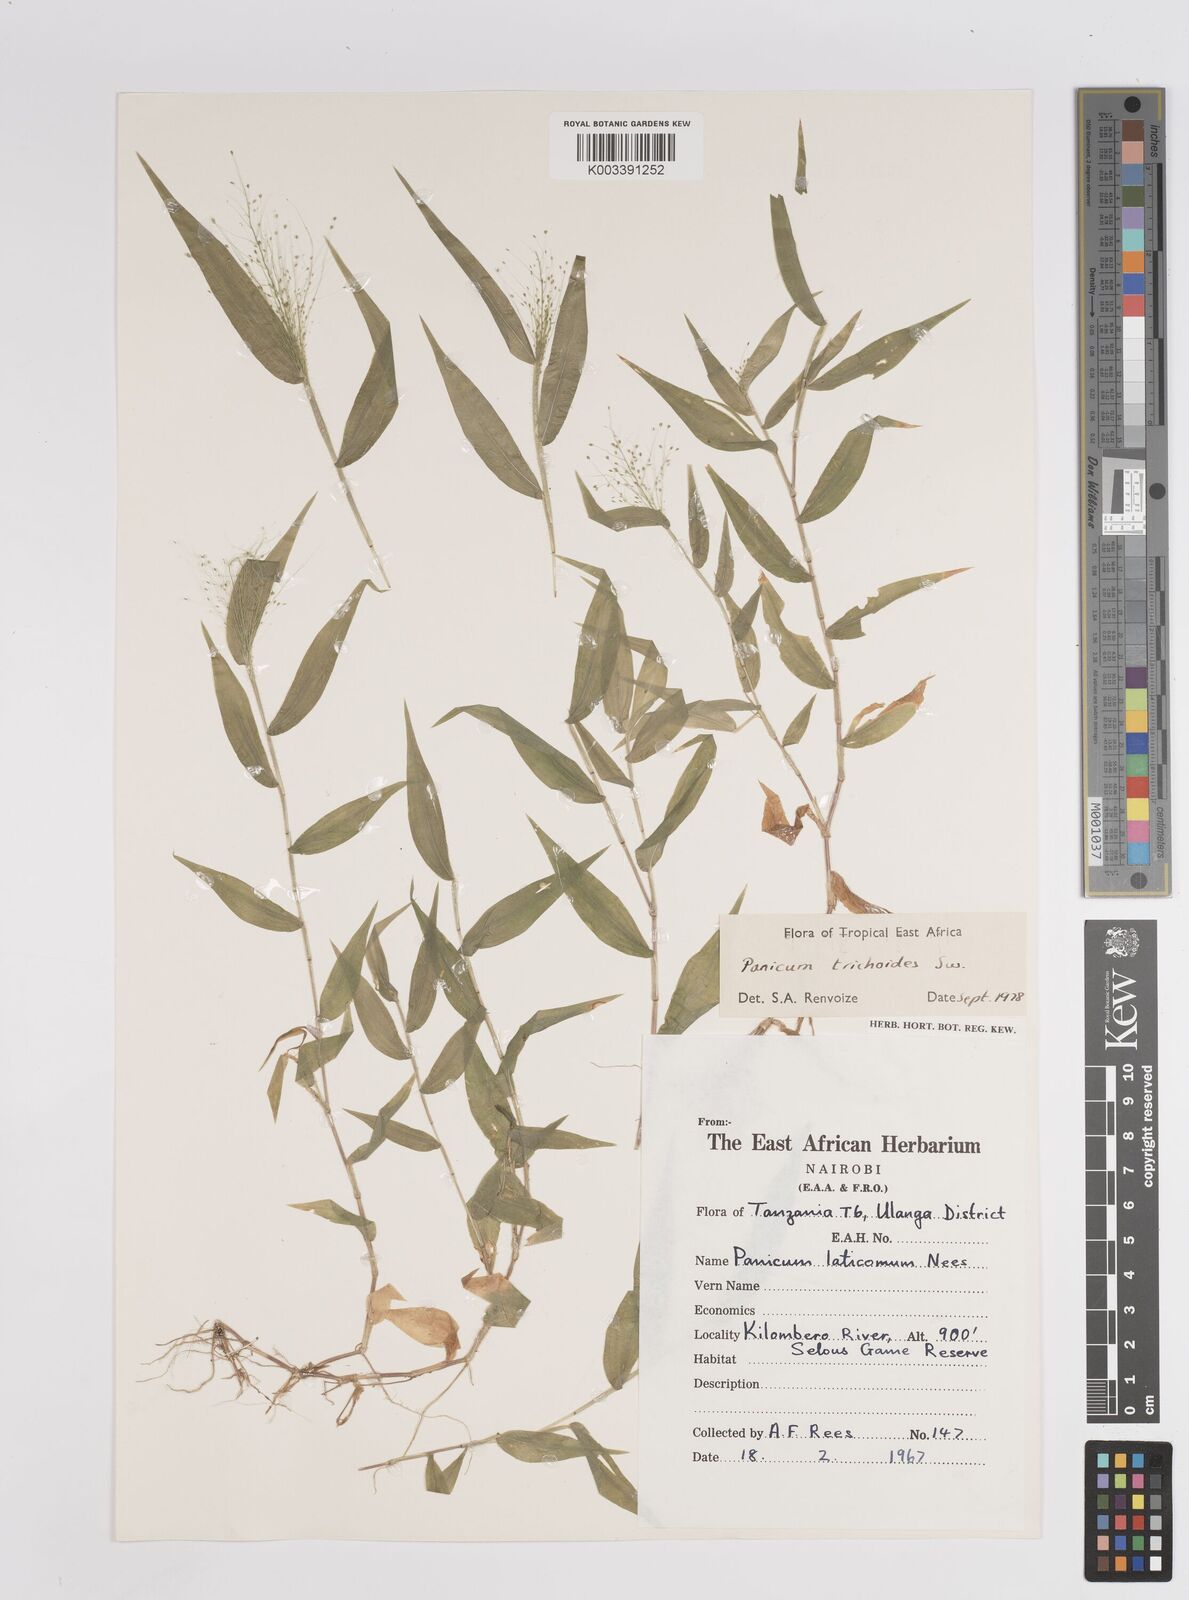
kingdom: Plantae
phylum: Tracheophyta
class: Liliopsida
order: Poales
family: Poaceae
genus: Panicum
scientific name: Panicum trichoides
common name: Tickle grass
